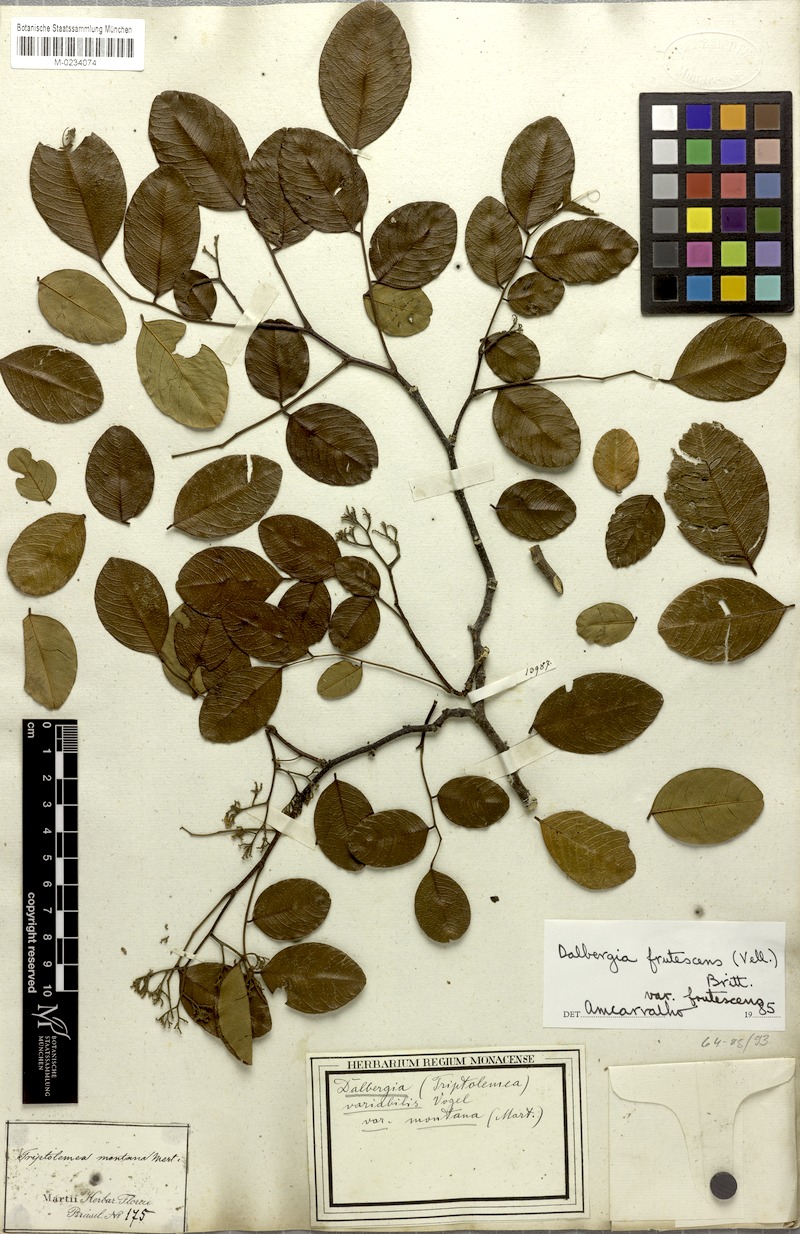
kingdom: Plantae
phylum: Tracheophyta
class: Magnoliopsida
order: Fabales
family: Fabaceae
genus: Dalbergia
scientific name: Dalbergia frutescens
